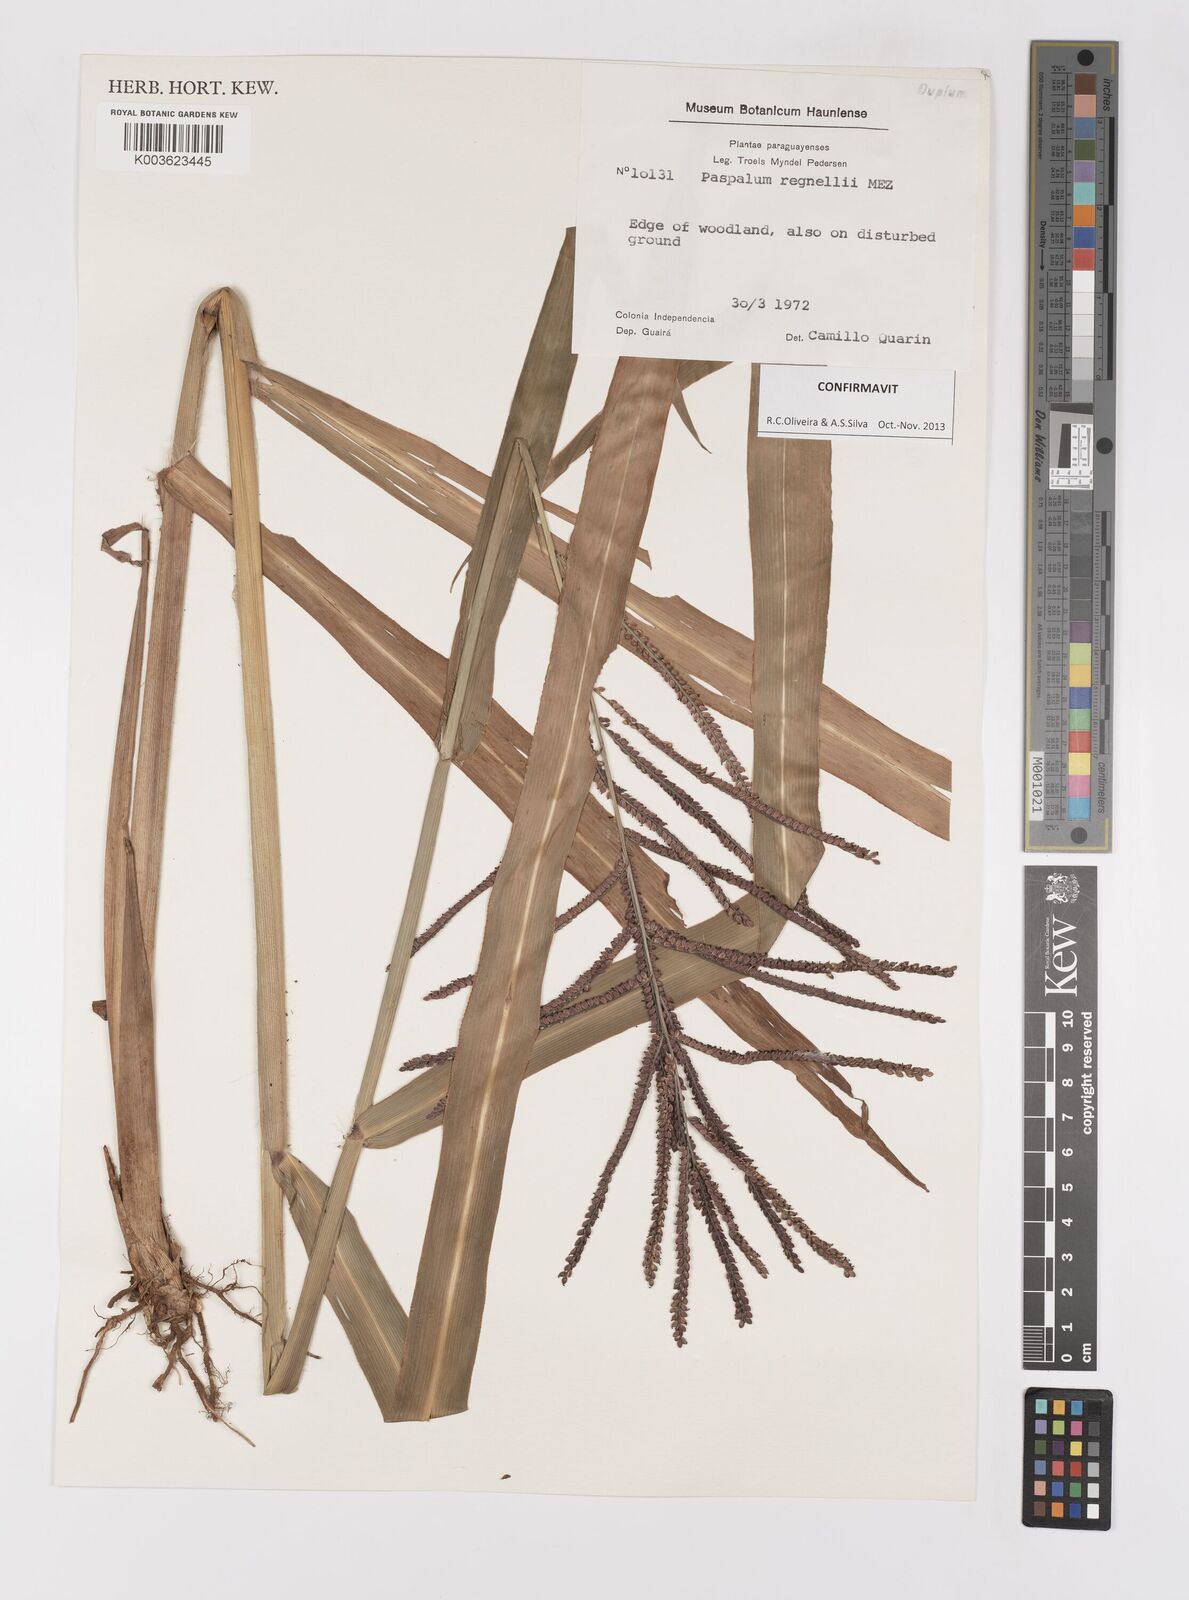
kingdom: Plantae
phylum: Tracheophyta
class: Liliopsida
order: Poales
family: Poaceae
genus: Paspalum
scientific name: Paspalum conspersum
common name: Scattered paspalum
